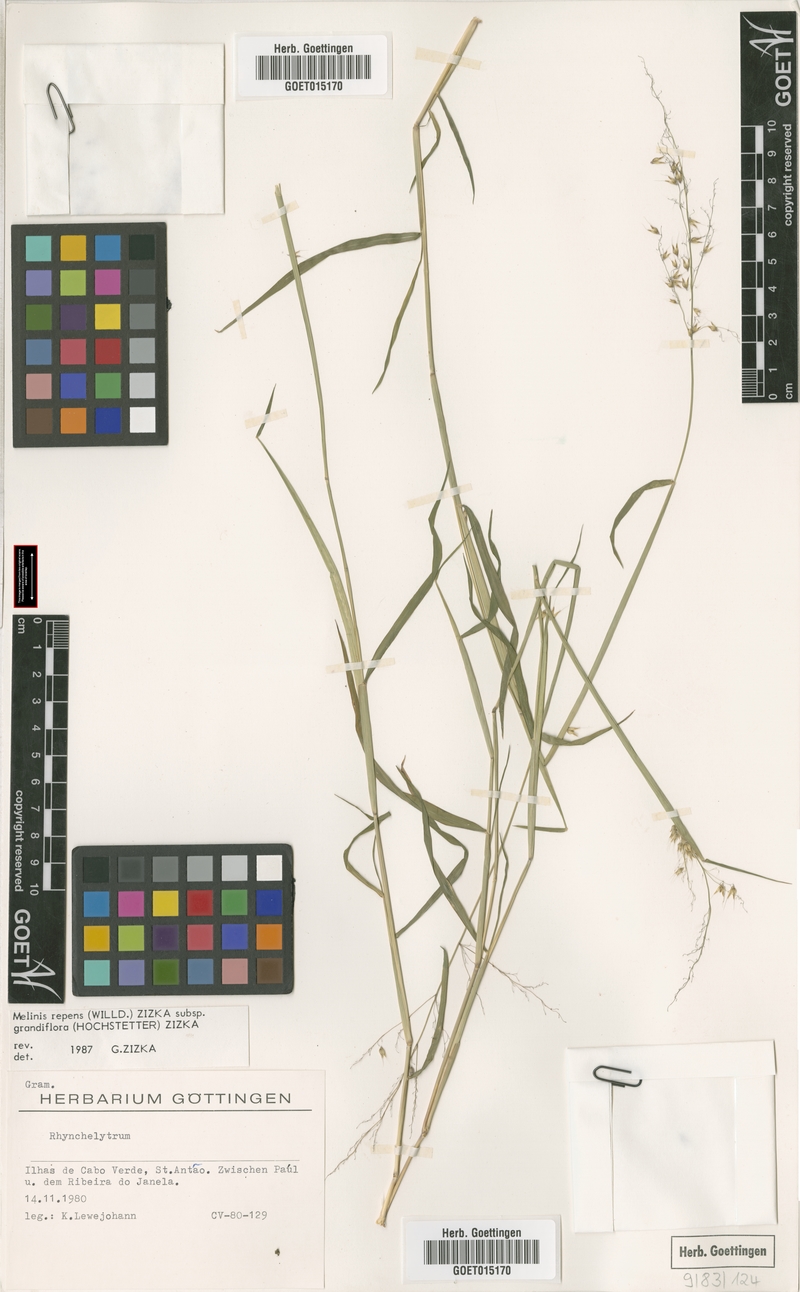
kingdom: Plantae
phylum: Tracheophyta
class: Liliopsida
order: Poales
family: Poaceae
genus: Melinis
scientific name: Melinis repens
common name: Rose natal grass
